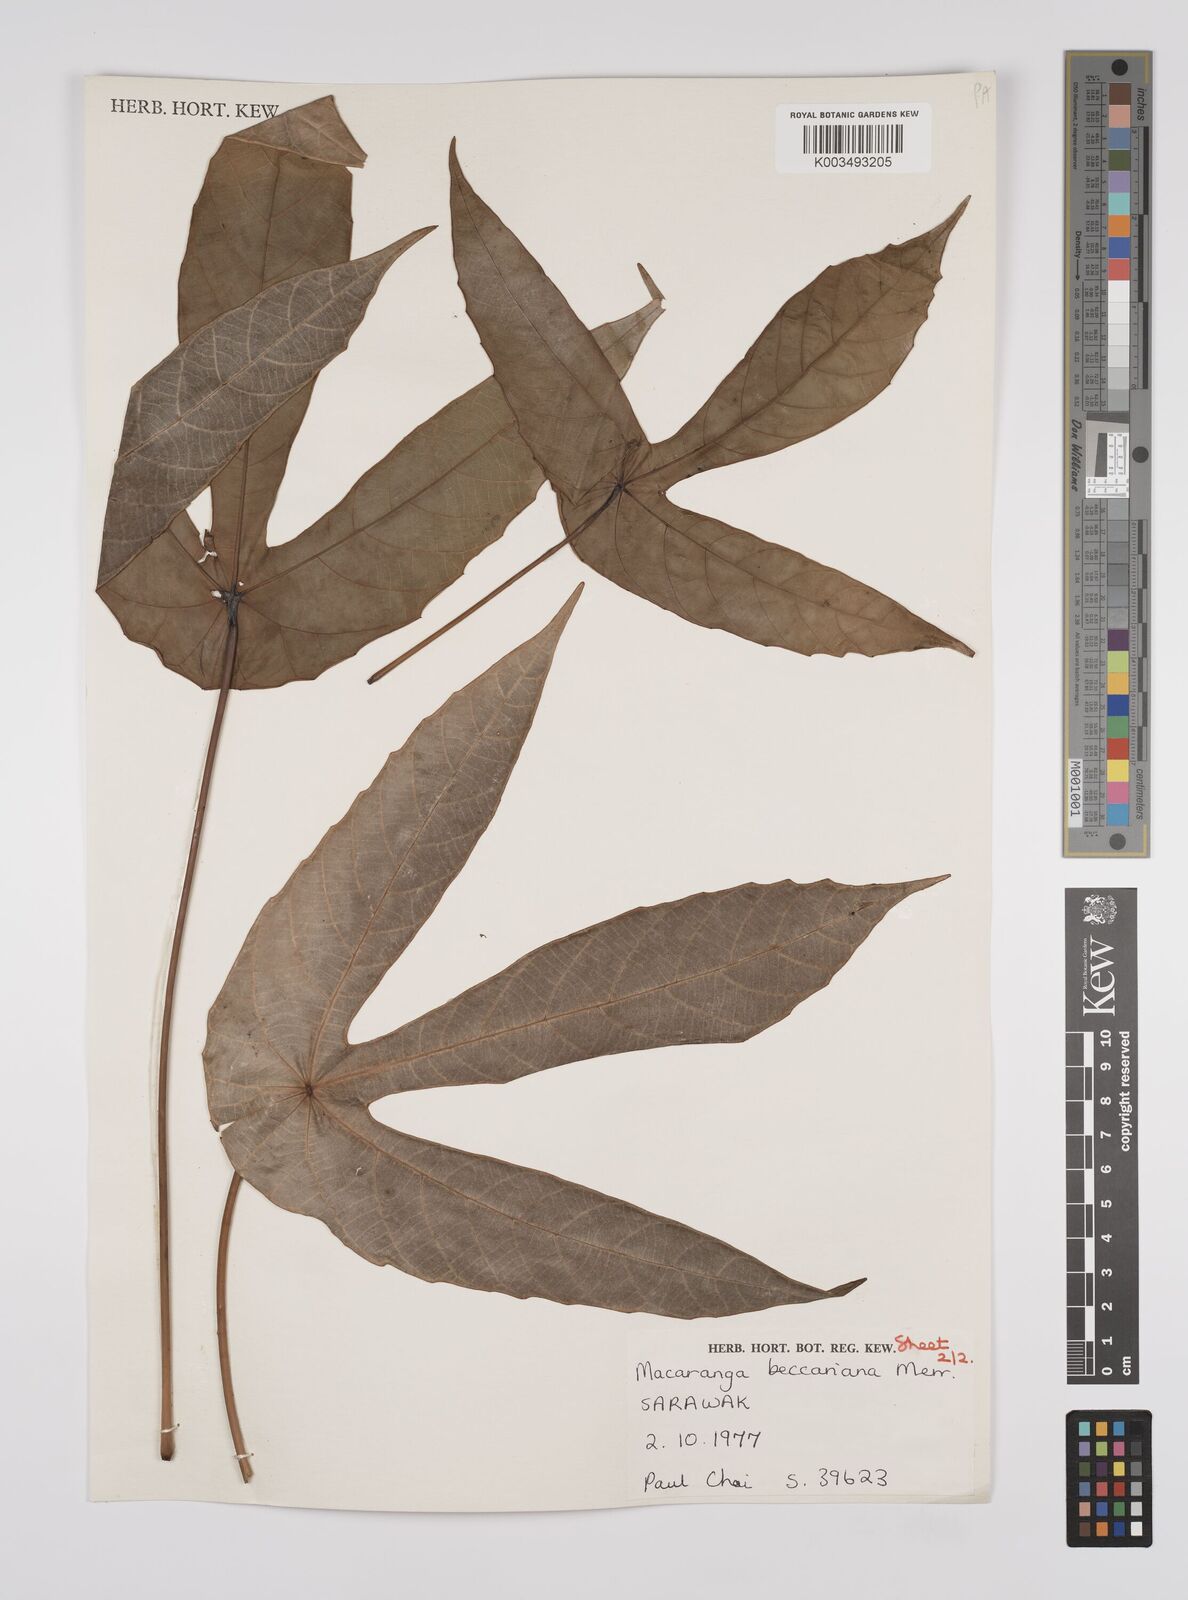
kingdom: Plantae
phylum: Tracheophyta
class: Magnoliopsida
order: Malpighiales
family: Euphorbiaceae
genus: Macaranga
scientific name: Macaranga beccariana
